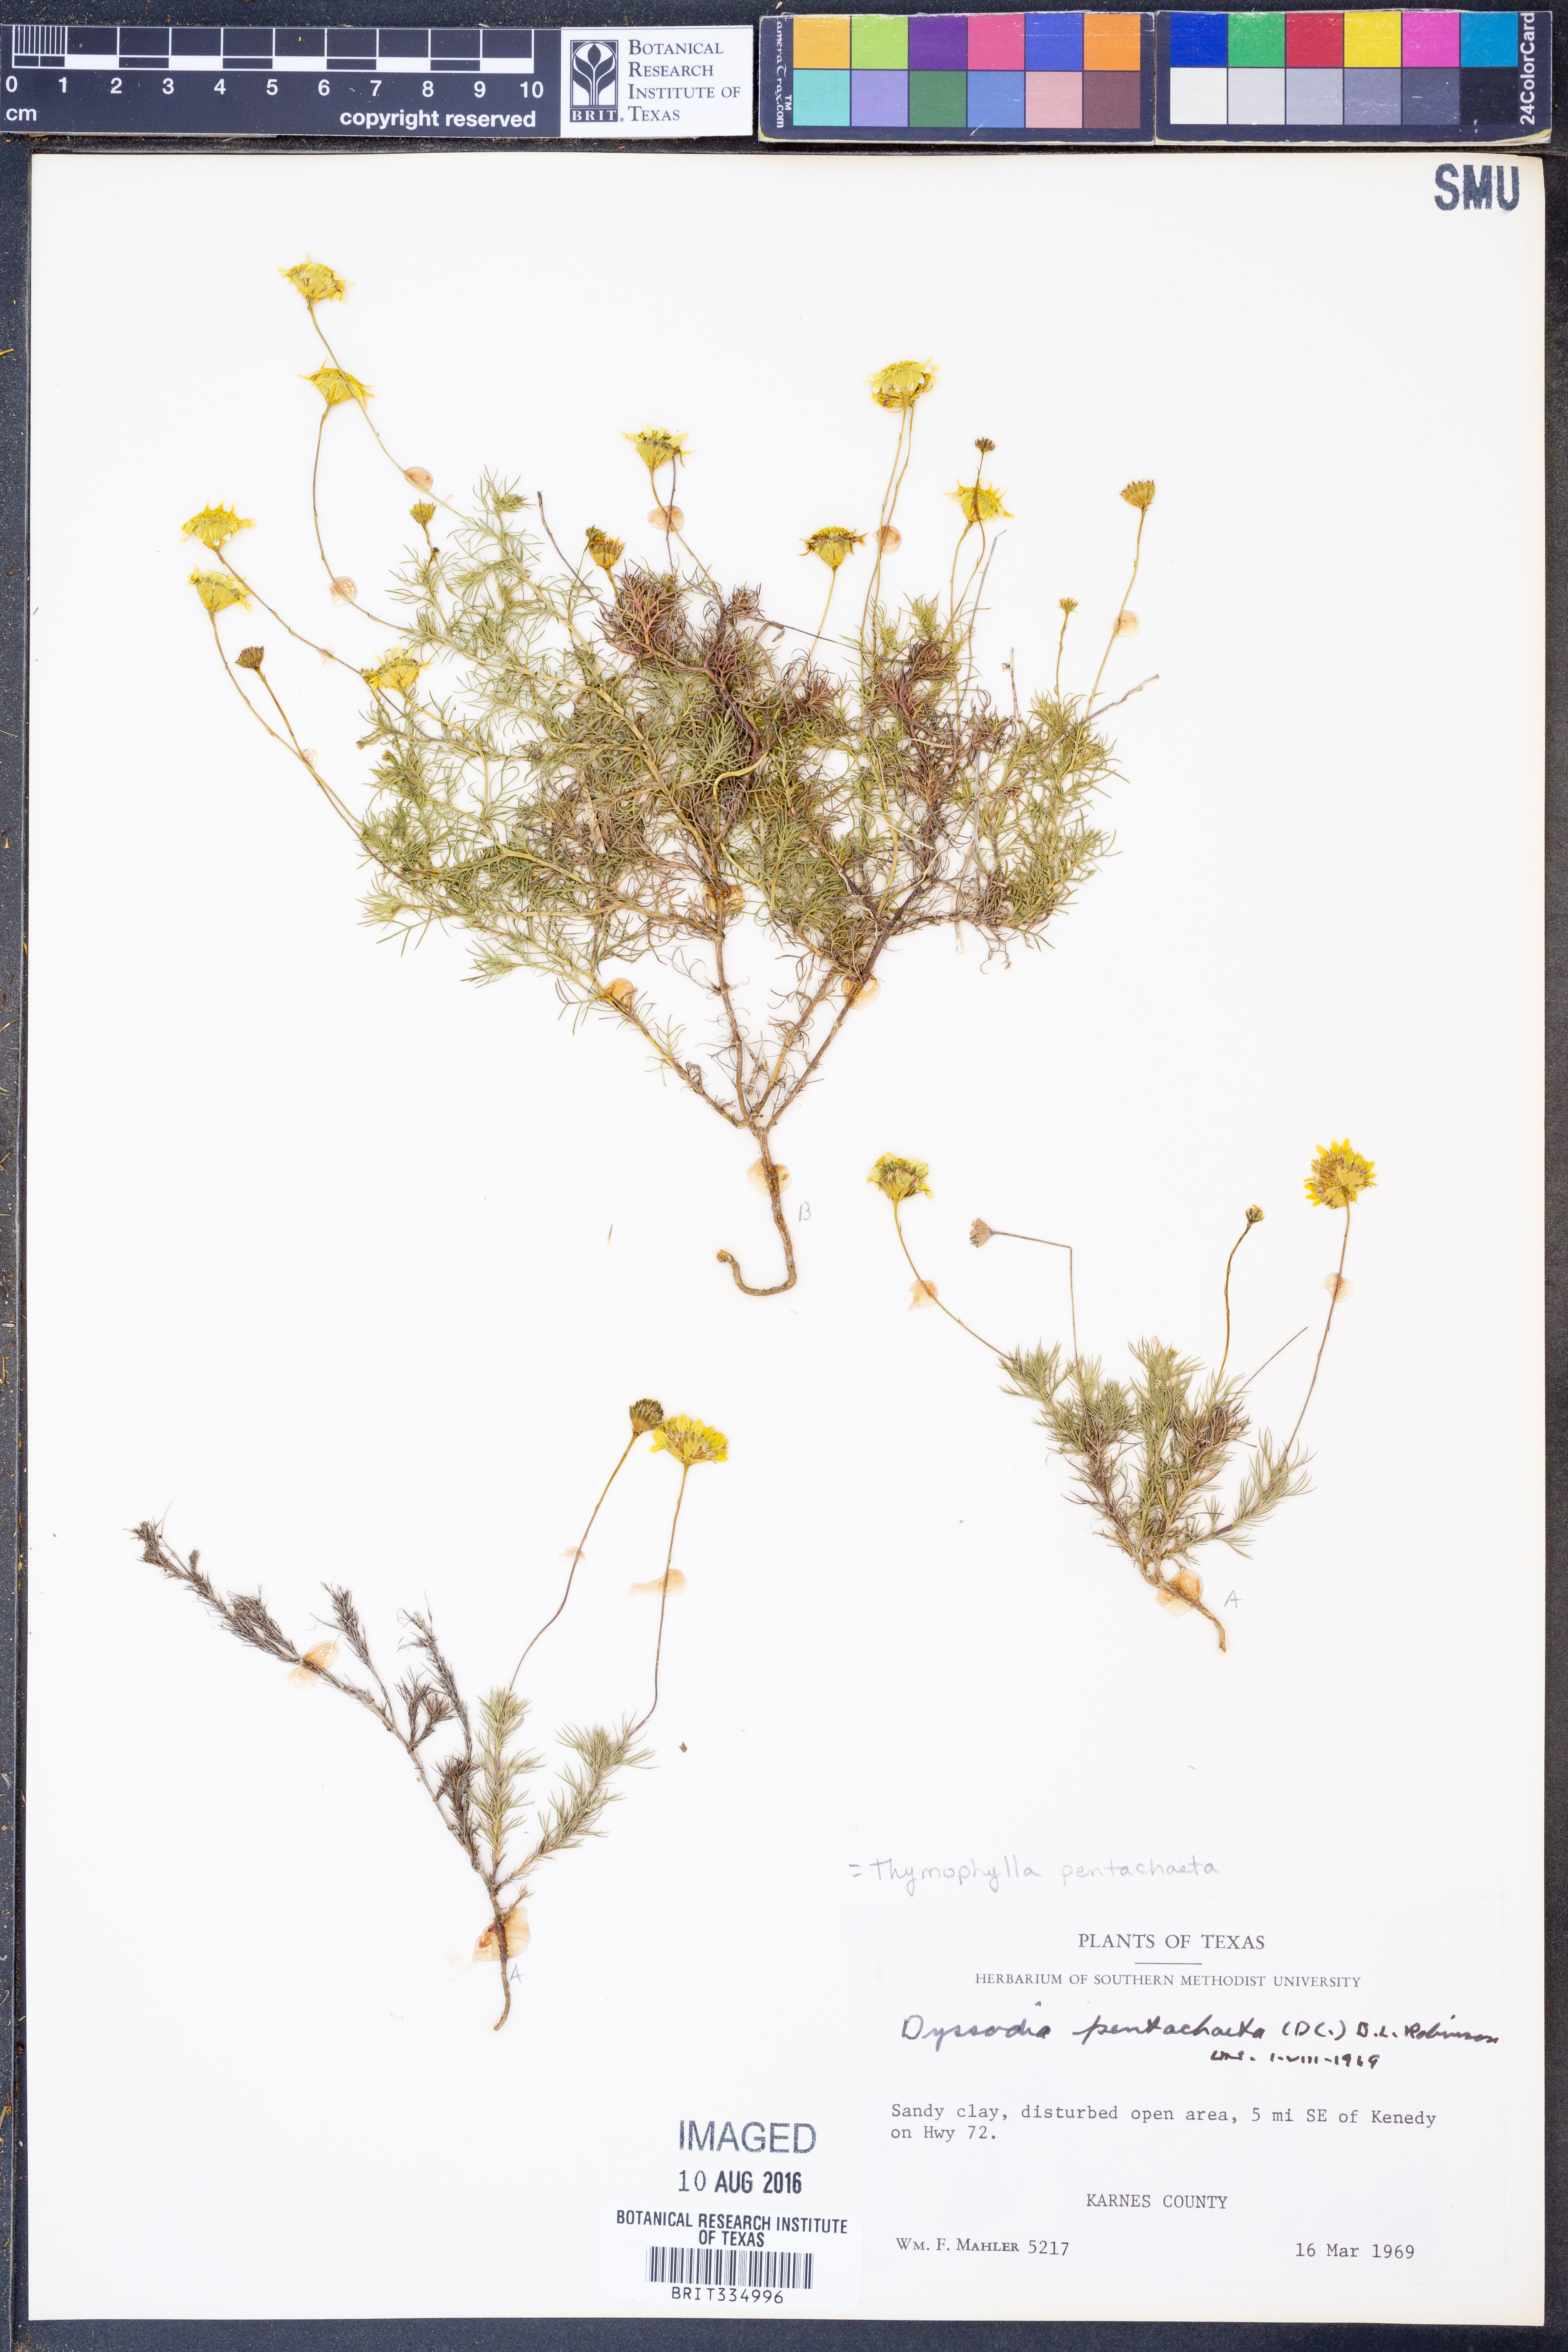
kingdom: Plantae
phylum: Tracheophyta
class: Magnoliopsida
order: Asterales
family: Asteraceae
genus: Thymophylla
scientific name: Thymophylla pentachaeta
